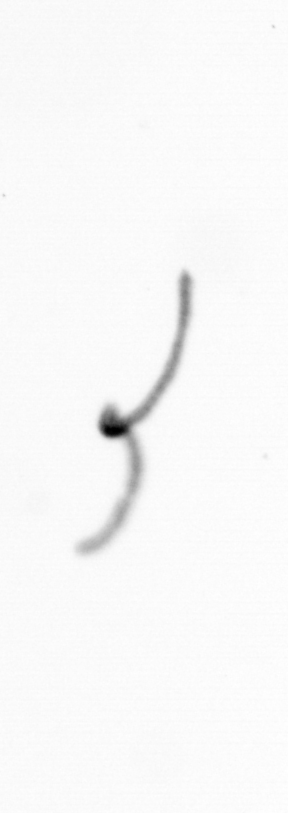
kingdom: Chromista
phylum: Ochrophyta
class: Bacillariophyceae
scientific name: Bacillariophyceae
